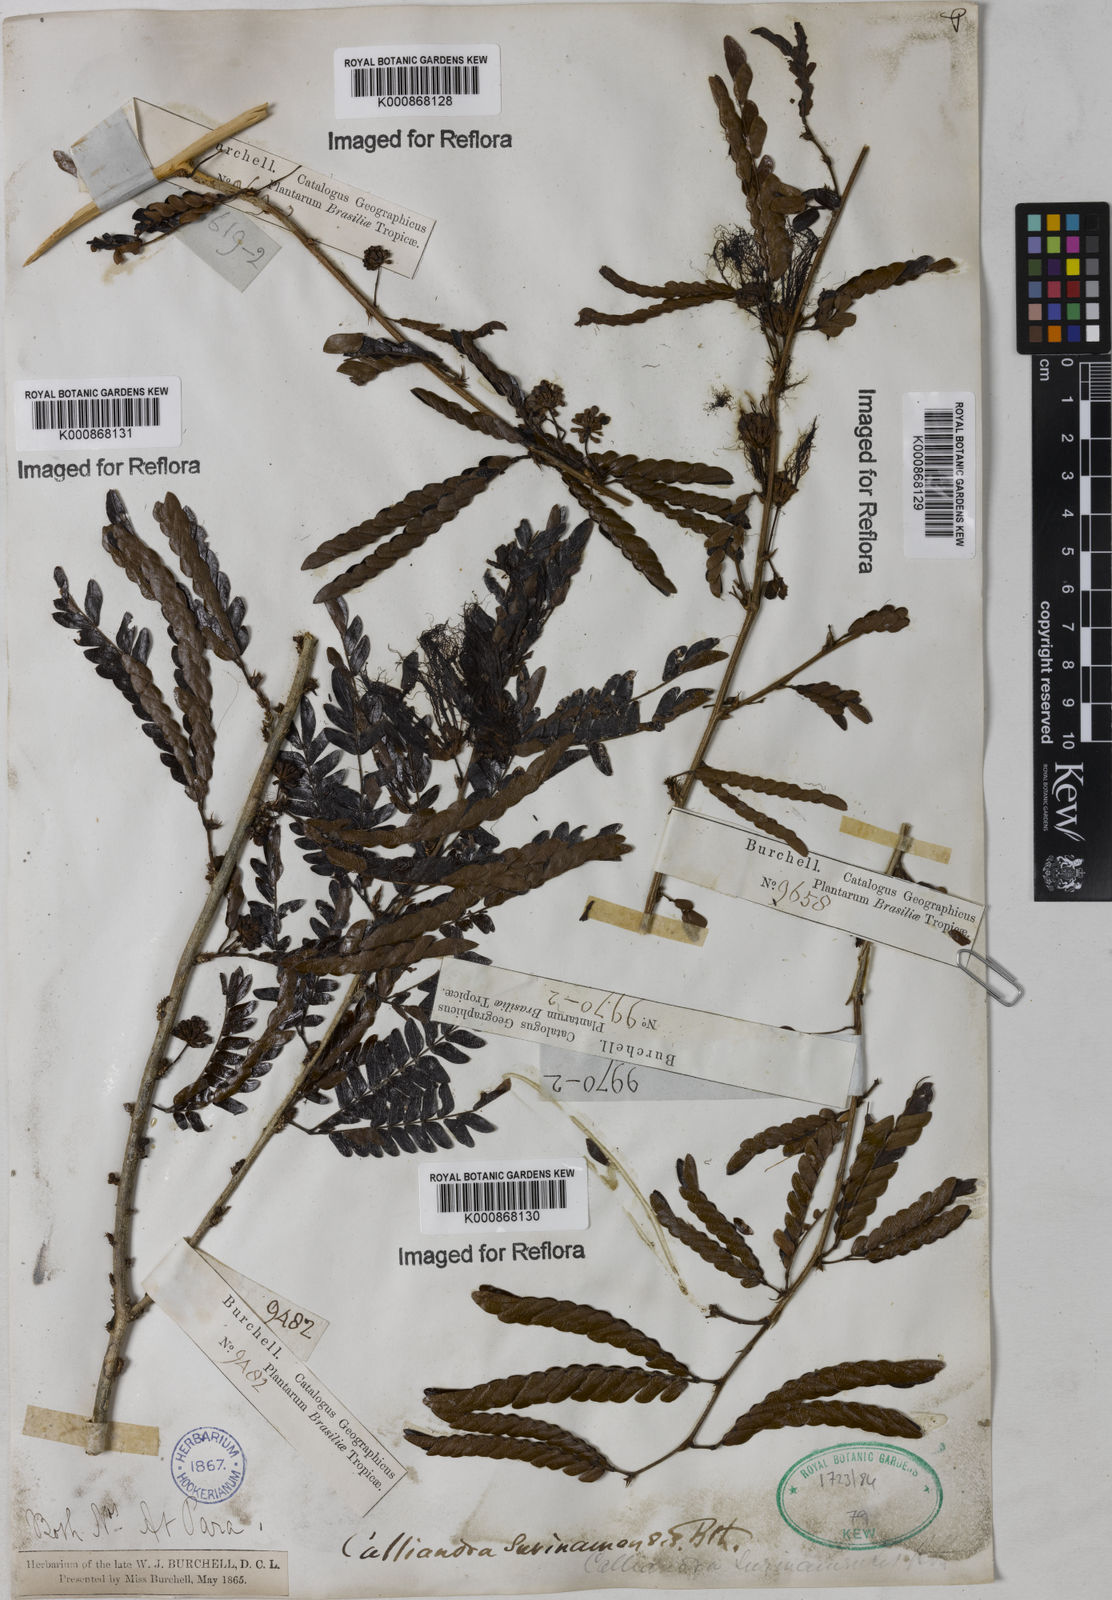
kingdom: Plantae
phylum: Tracheophyta
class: Magnoliopsida
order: Fabales
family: Fabaceae
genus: Calliandra
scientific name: Calliandra surinamensis
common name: Pink powder puff
